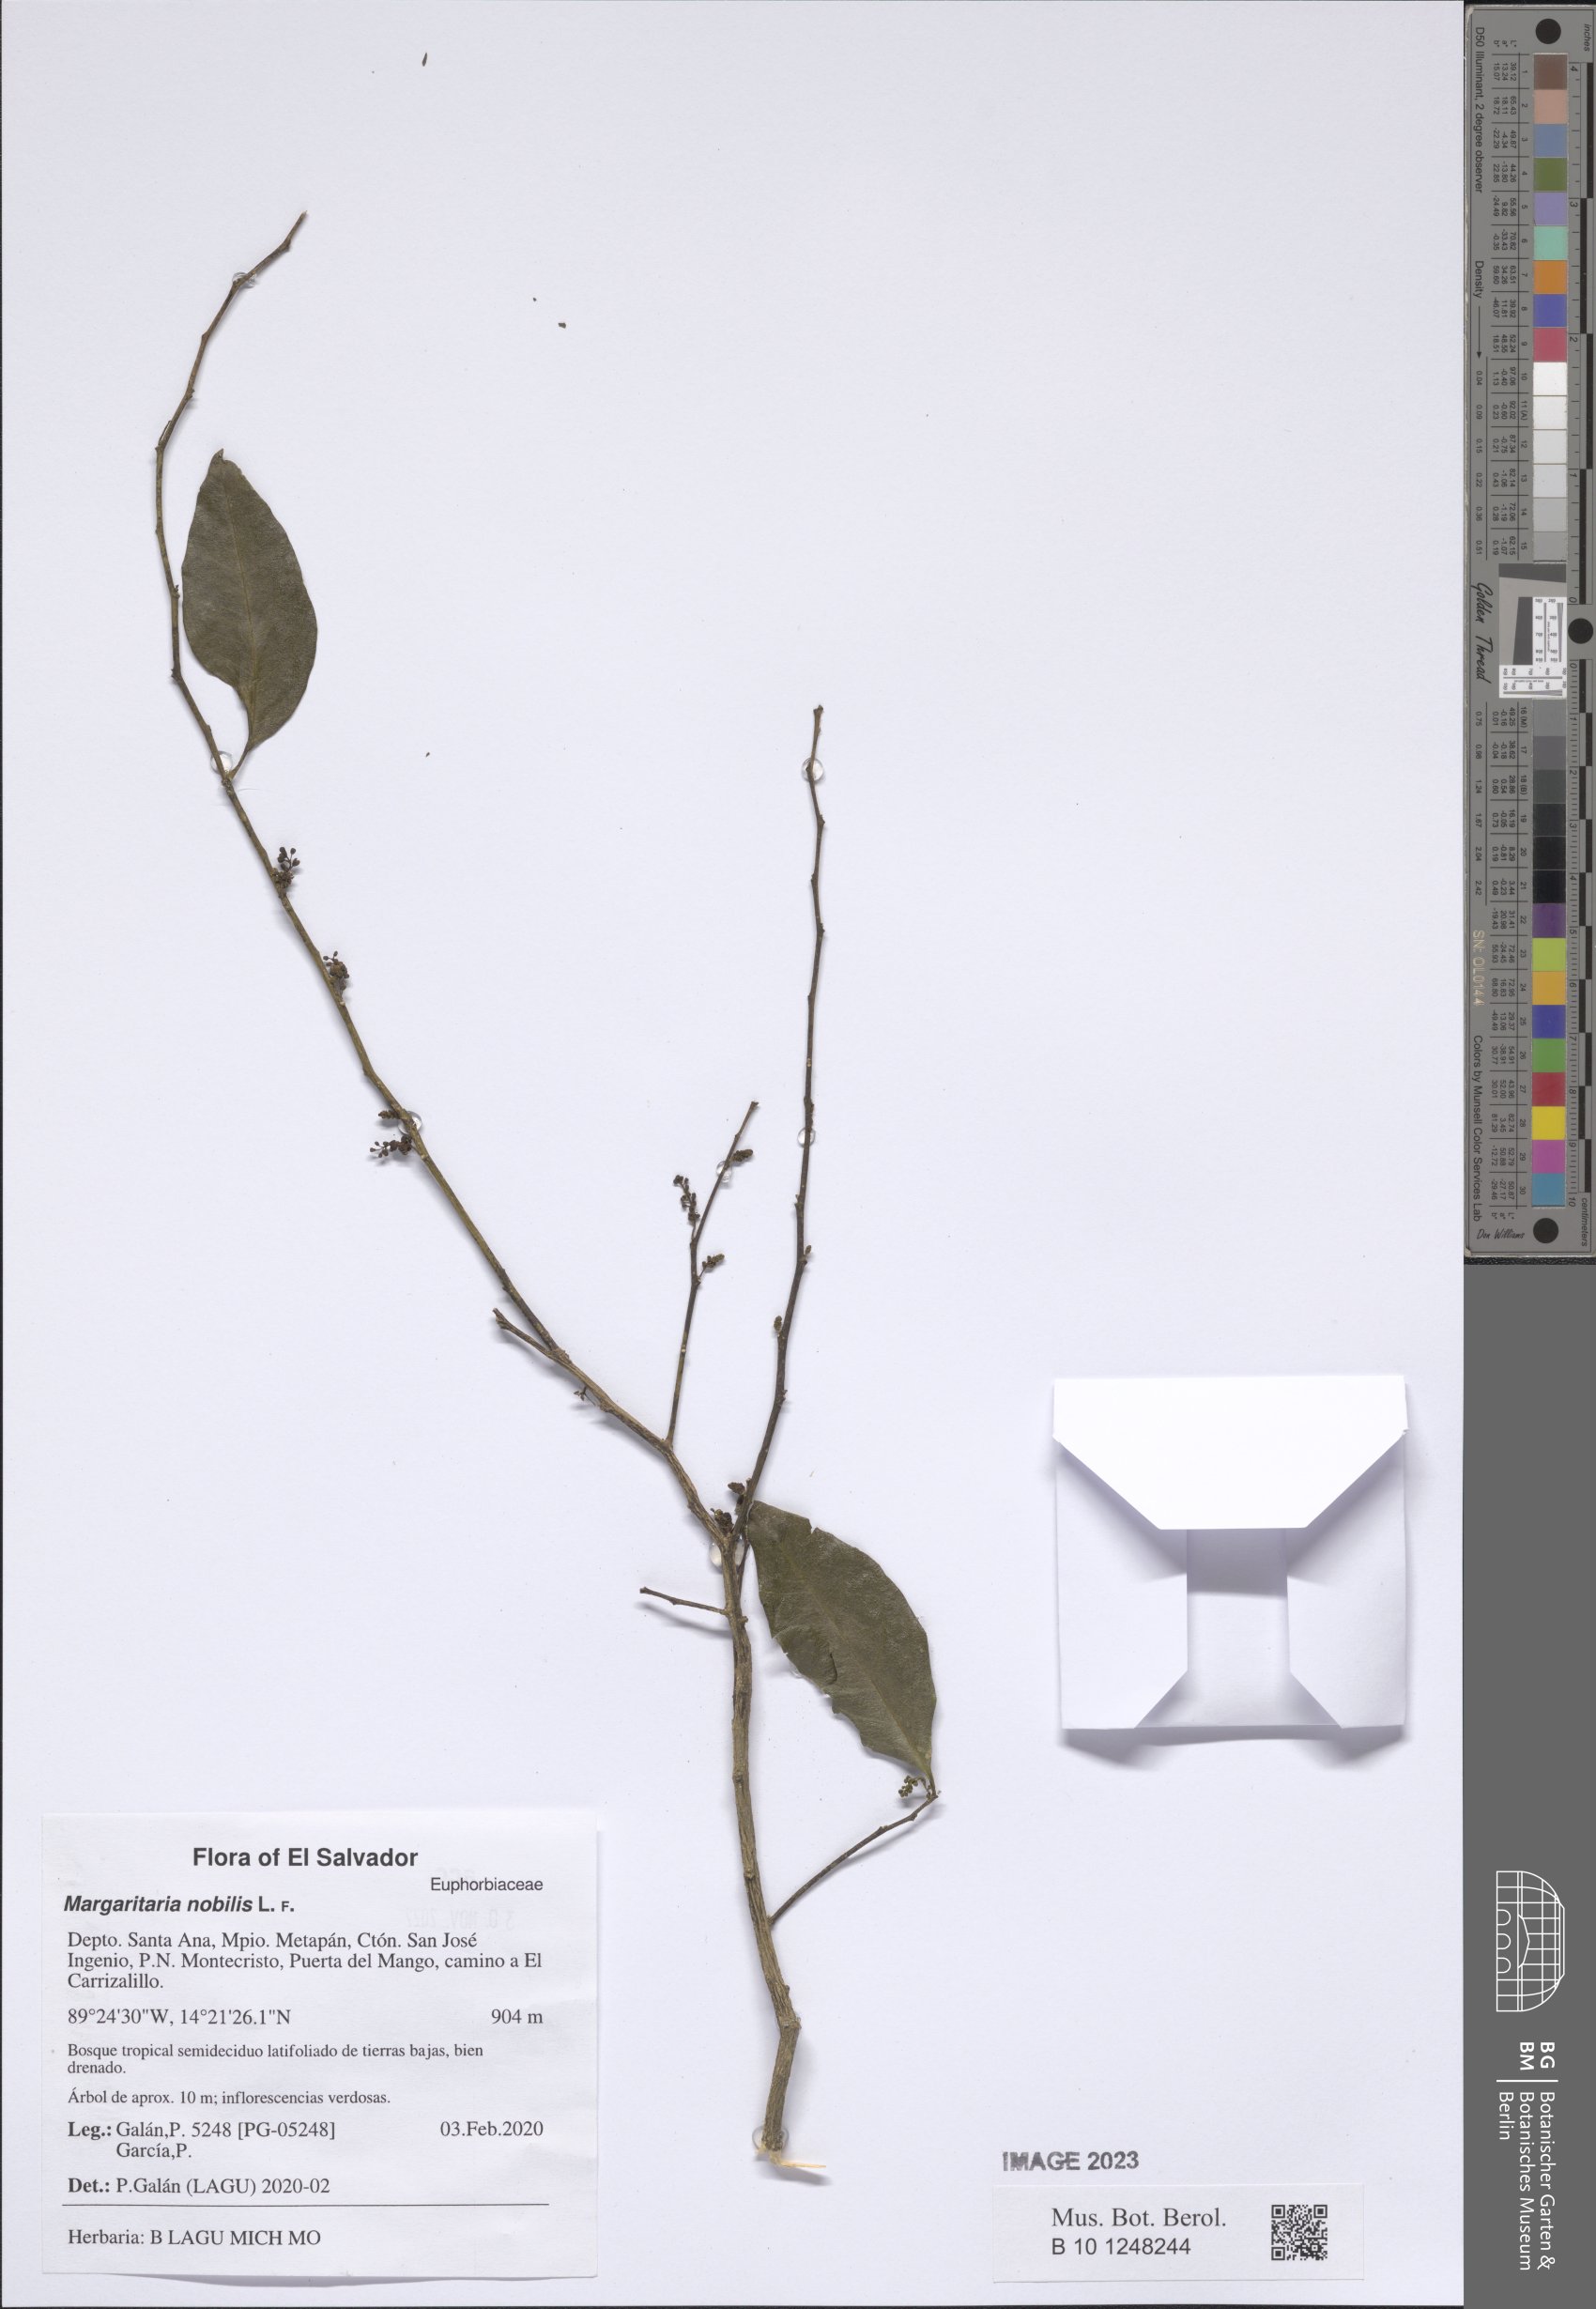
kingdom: Plantae
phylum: Tracheophyta
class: Magnoliopsida
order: Malpighiales
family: Phyllanthaceae
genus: Margaritaria
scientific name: Margaritaria nobilis
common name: Goose berry
